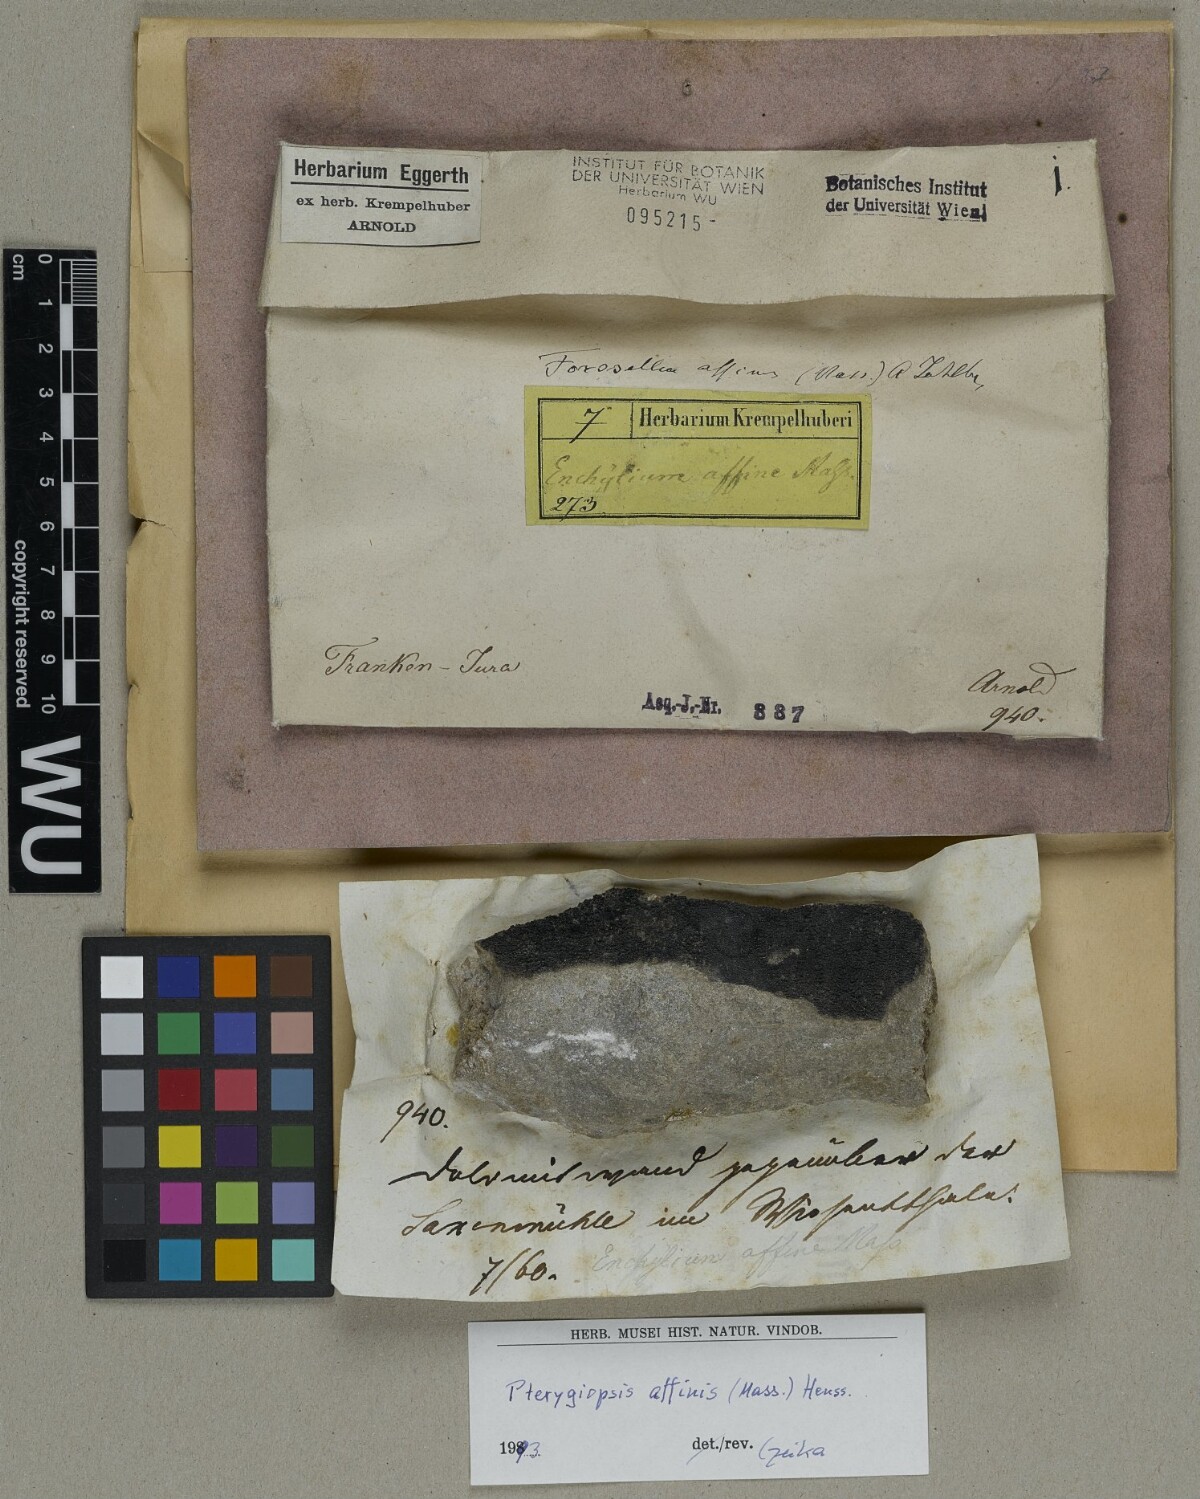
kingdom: Fungi
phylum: Ascomycota
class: Lichinomycetes
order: Lichinales
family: Lichinaceae
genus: Pterygiopsis
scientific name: Pterygiopsis affinis
